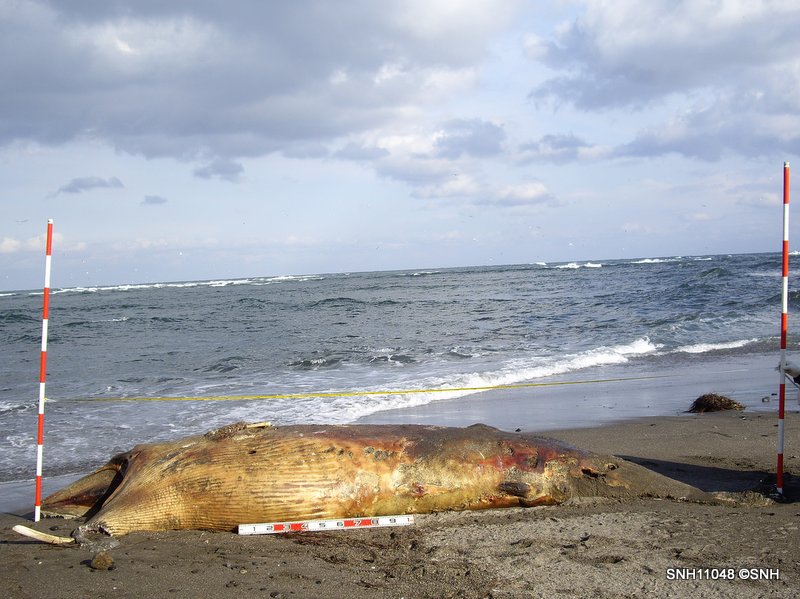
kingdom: Animalia
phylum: Chordata
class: Mammalia
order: Cetacea
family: Balaenopteridae
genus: Balaenoptera
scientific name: Balaenoptera acutorostrata
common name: Minke whale
